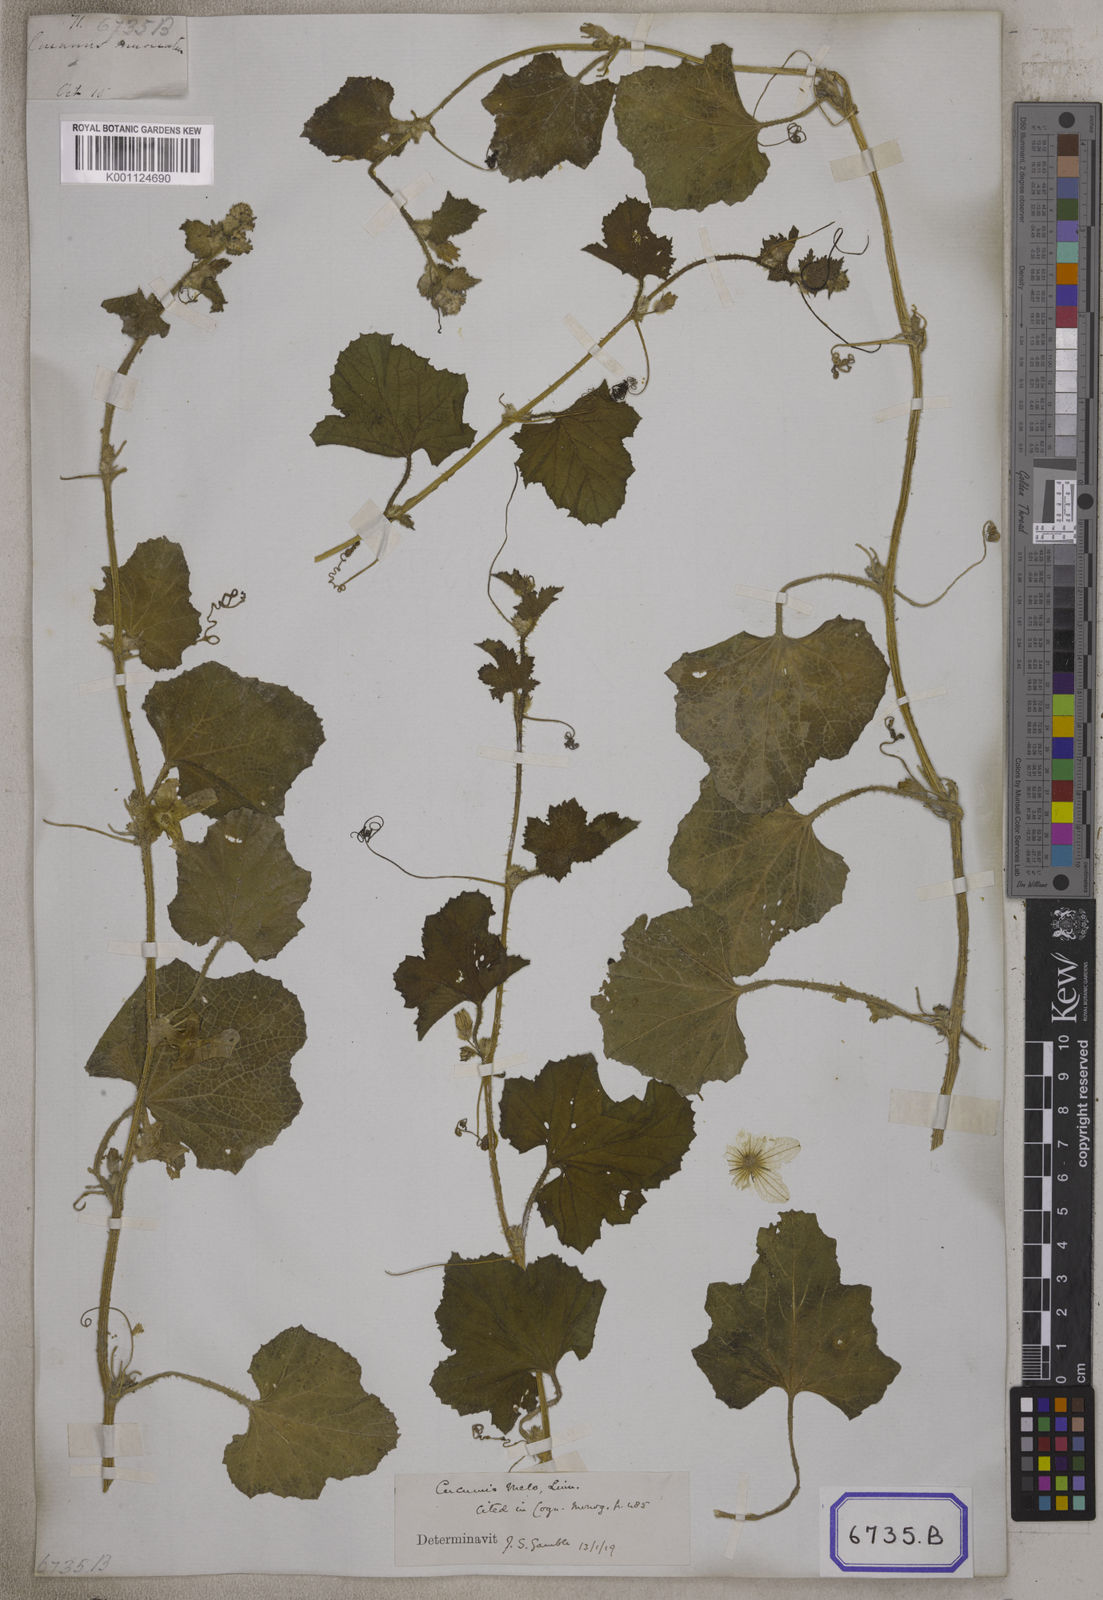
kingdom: Plantae
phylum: Tracheophyta
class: Magnoliopsida
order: Cucurbitales
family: Cucurbitaceae
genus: Cucumis
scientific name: Cucumis sativus
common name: Cucumber
